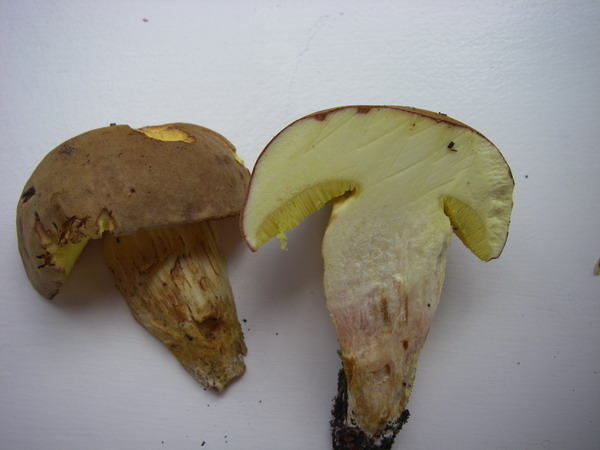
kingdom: Fungi
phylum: Basidiomycota
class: Agaricomycetes
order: Boletales
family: Boletaceae
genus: Xerocomus
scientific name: Xerocomus subtomentosus
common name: filtet rørhat
